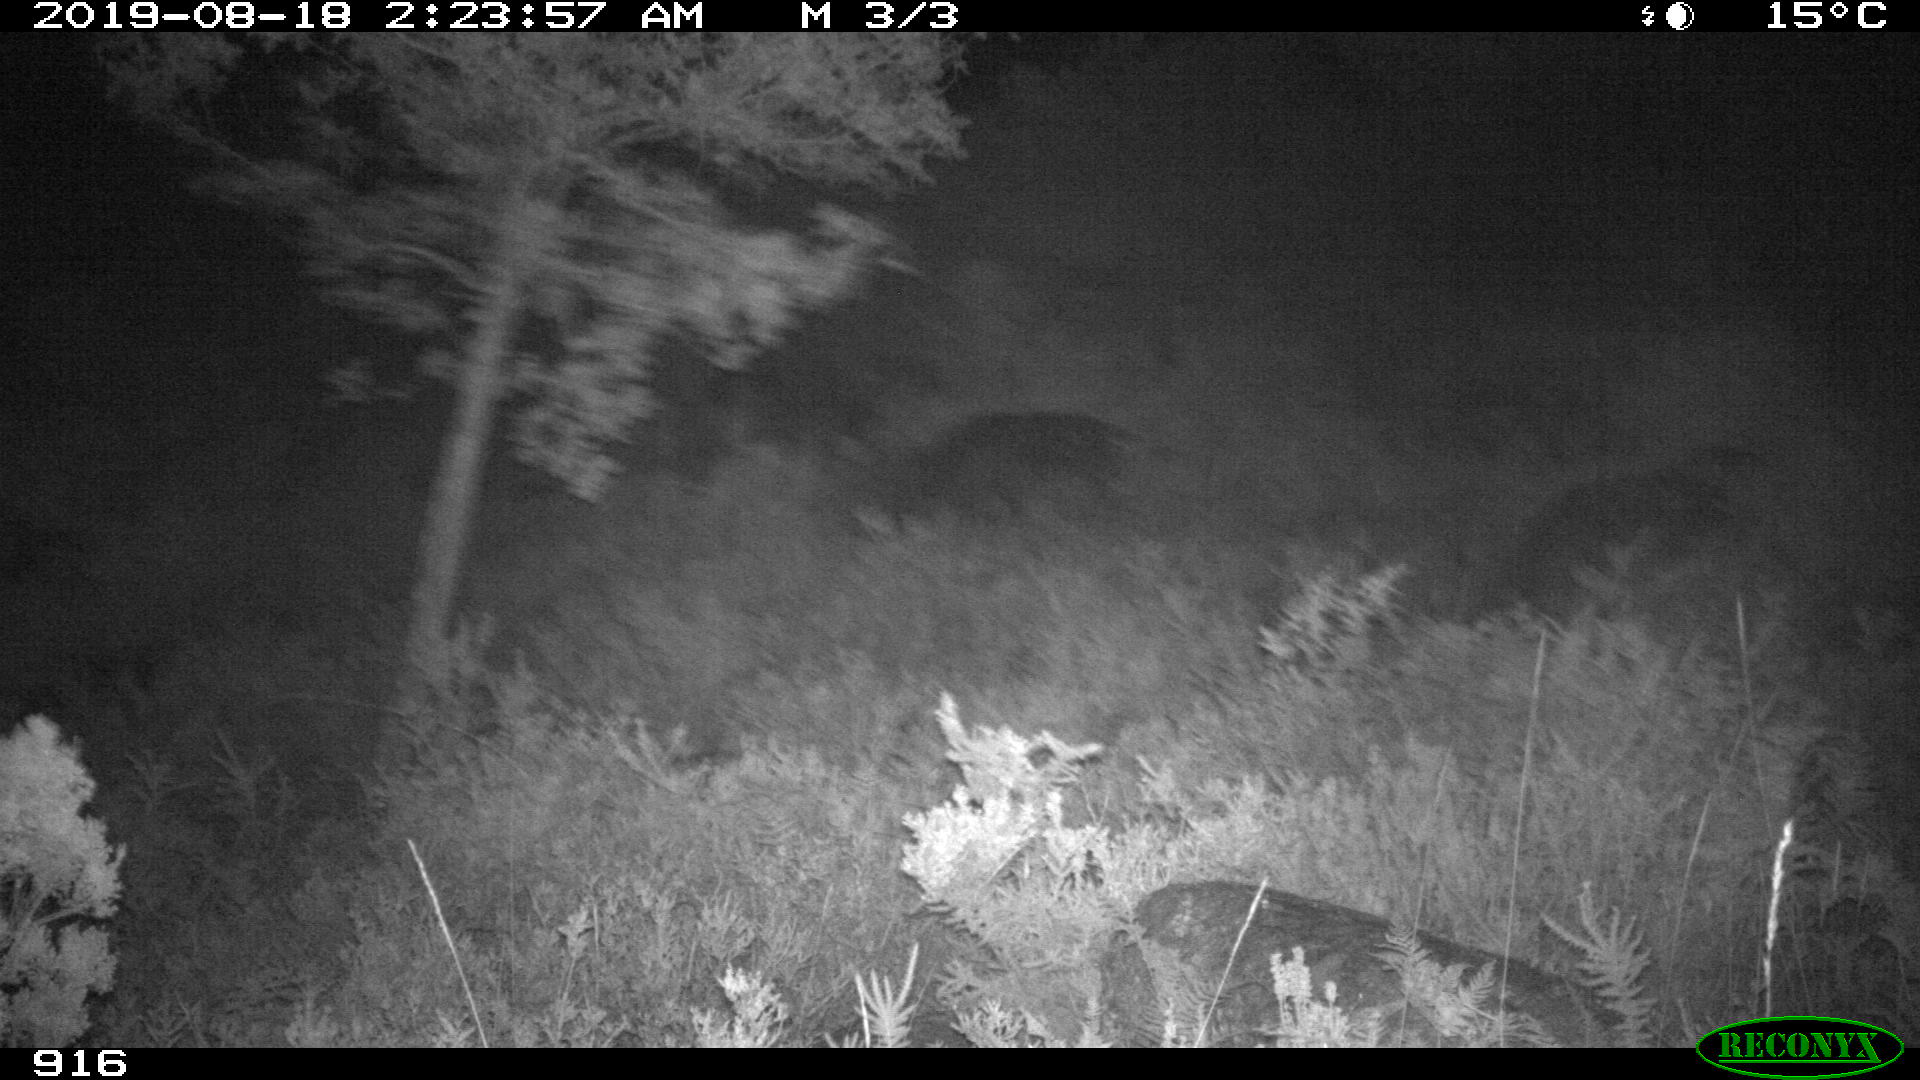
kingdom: Animalia
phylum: Chordata
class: Mammalia
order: Perissodactyla
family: Equidae
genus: Equus
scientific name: Equus caballus
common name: Horse
